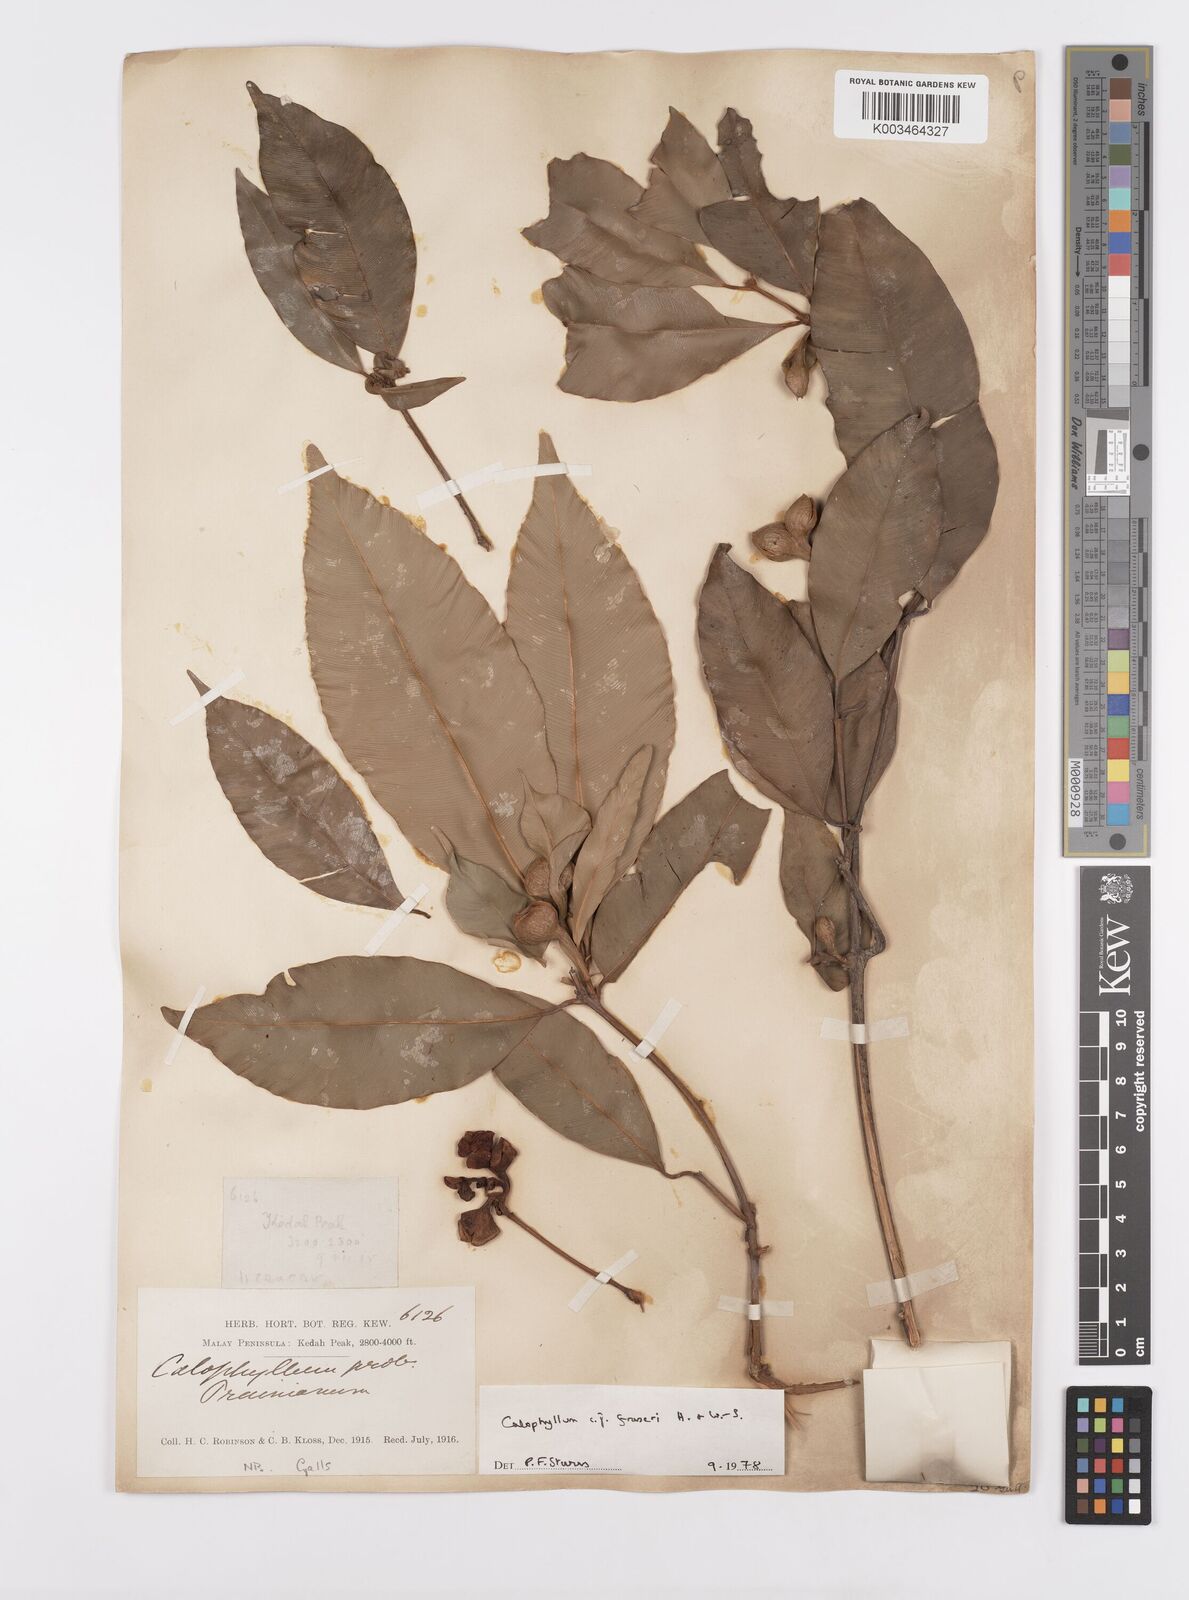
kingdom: Plantae
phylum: Tracheophyta
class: Magnoliopsida
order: Malpighiales
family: Calophyllaceae
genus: Calophyllum
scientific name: Calophyllum fraseri
